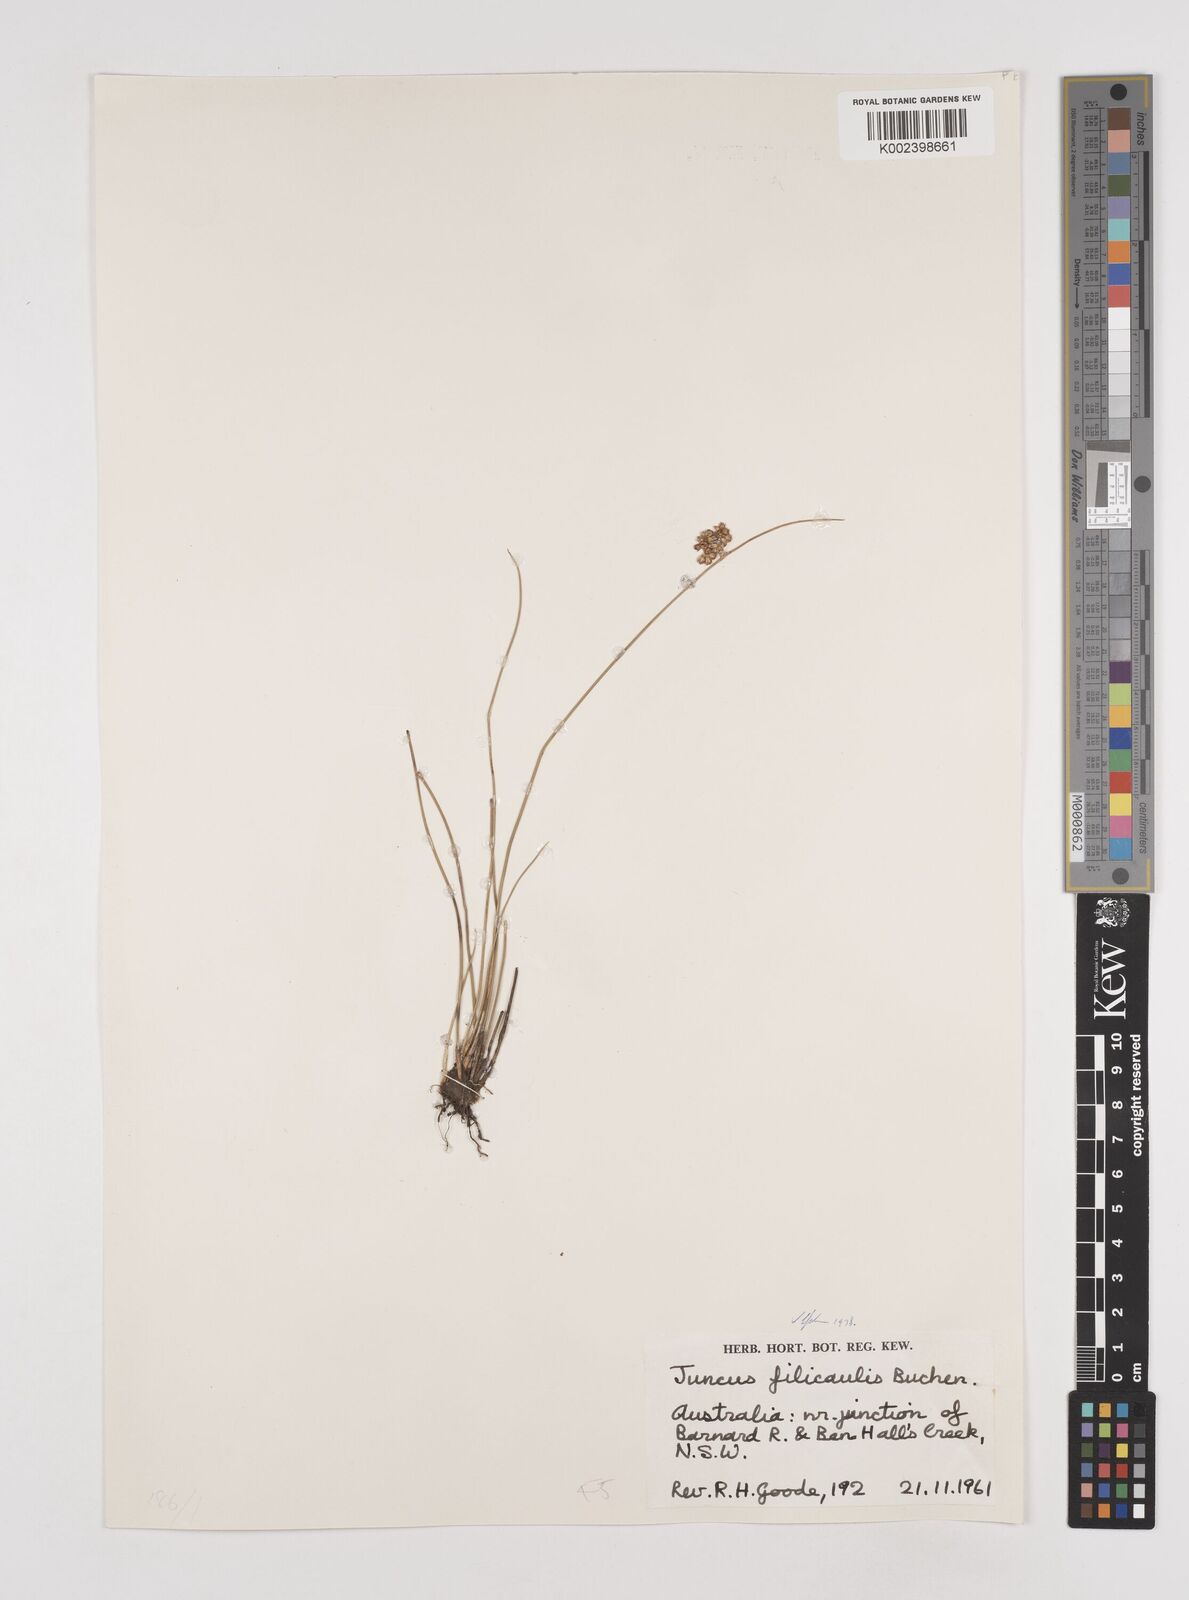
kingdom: Plantae
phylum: Tracheophyta
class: Liliopsida
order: Poales
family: Juncaceae
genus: Juncus
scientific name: Juncus filicaulis
